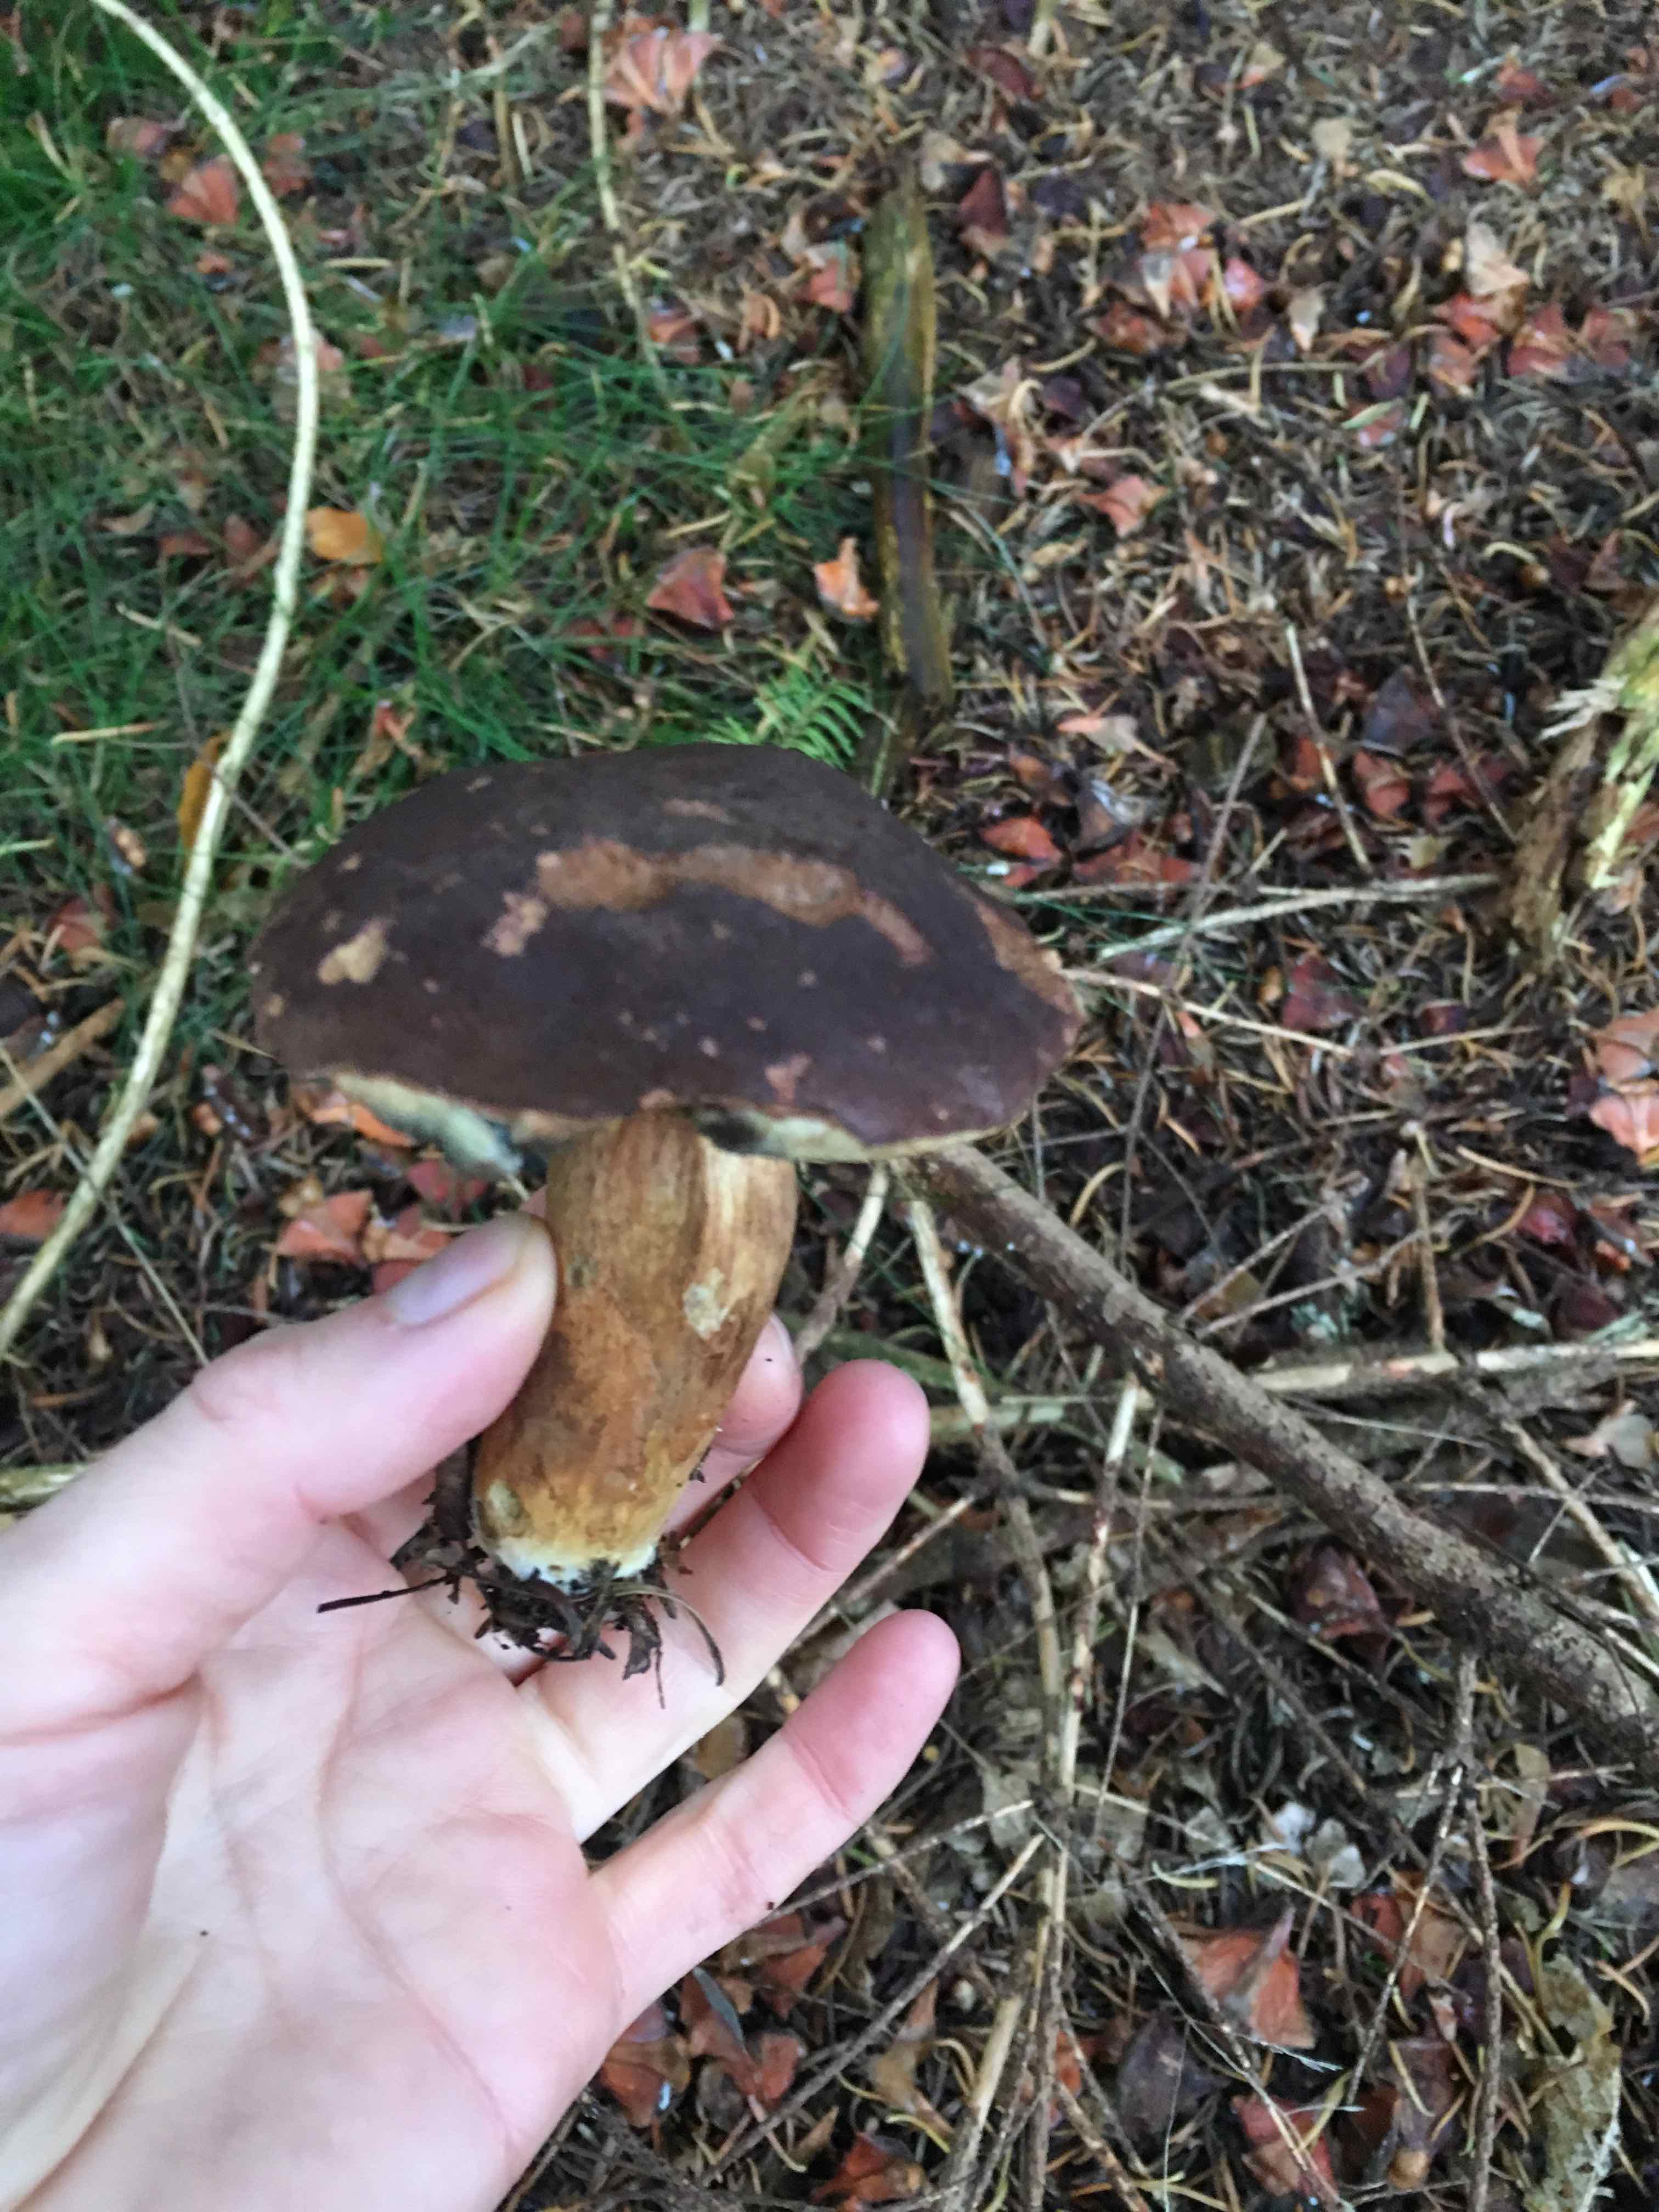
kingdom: Fungi
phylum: Basidiomycota
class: Agaricomycetes
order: Boletales
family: Boletaceae
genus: Imleria
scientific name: Imleria badia
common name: brunstokket rørhat
